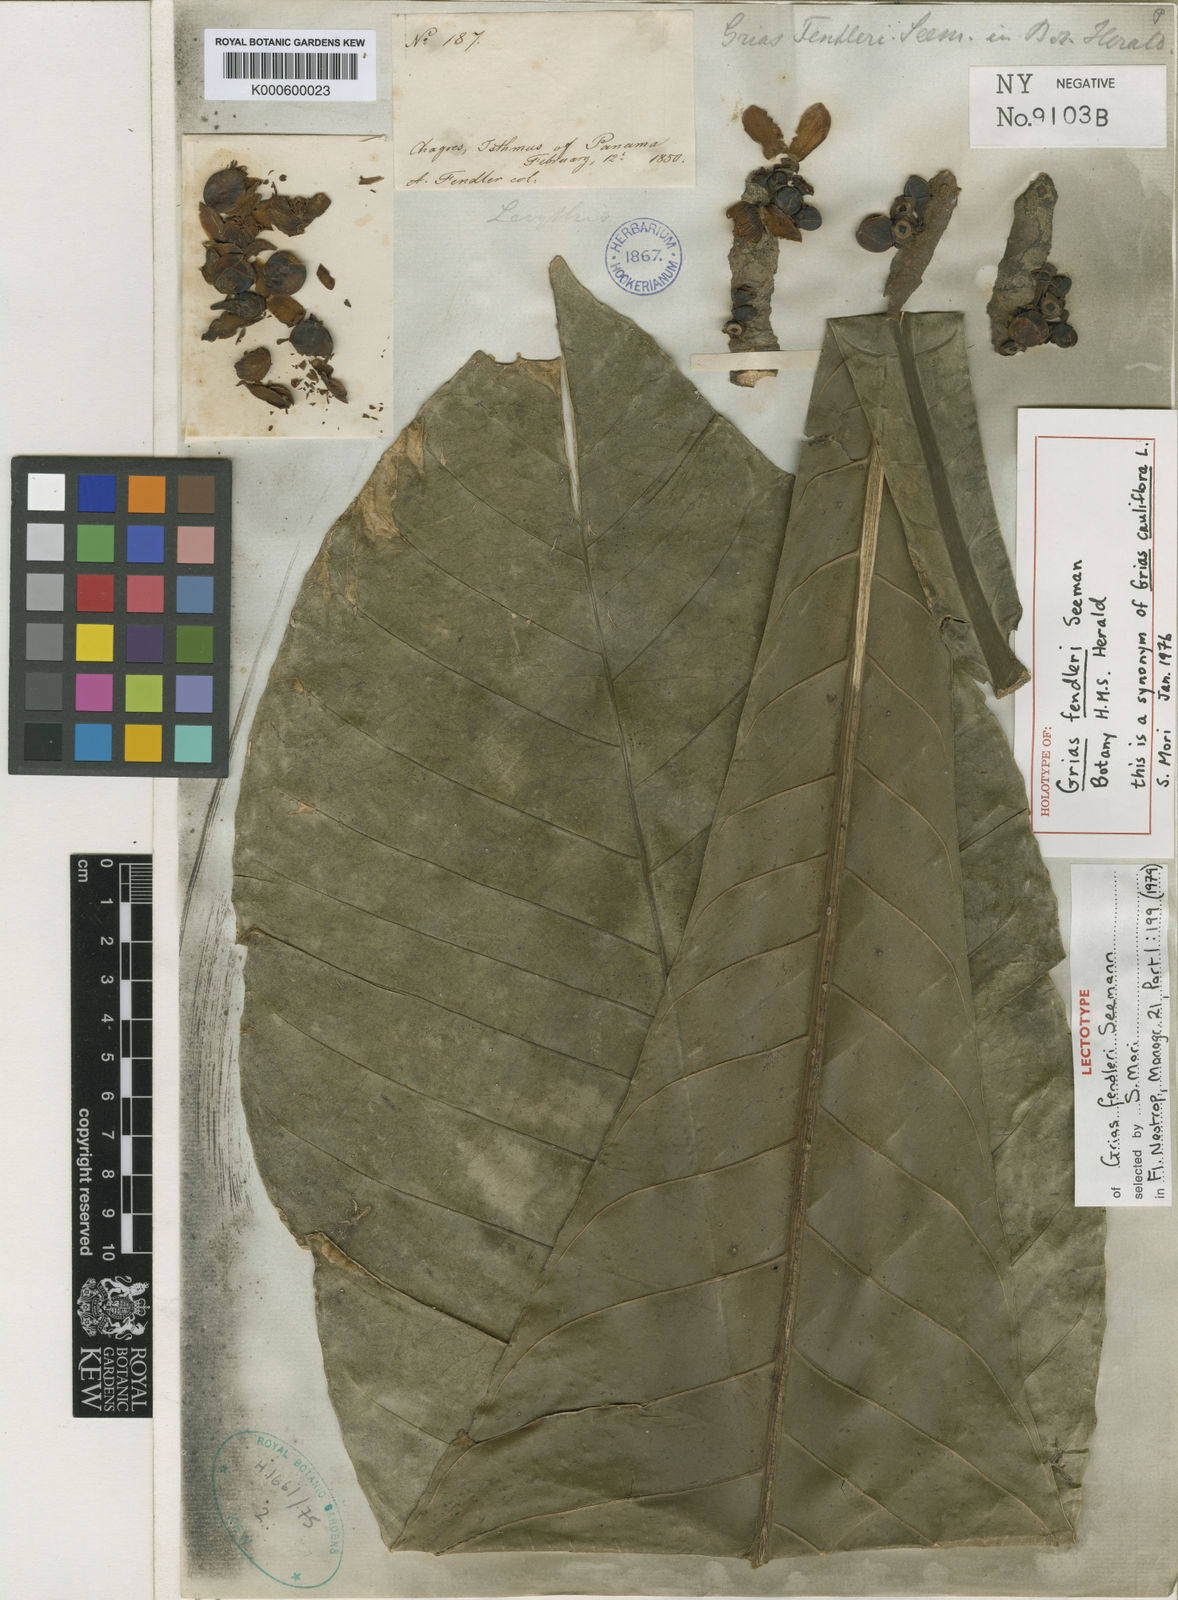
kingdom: Plantae
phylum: Tracheophyta
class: Magnoliopsida
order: Ericales
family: Lecythidaceae
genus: Grias
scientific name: Grias cauliflora
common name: Anchovy-pear
